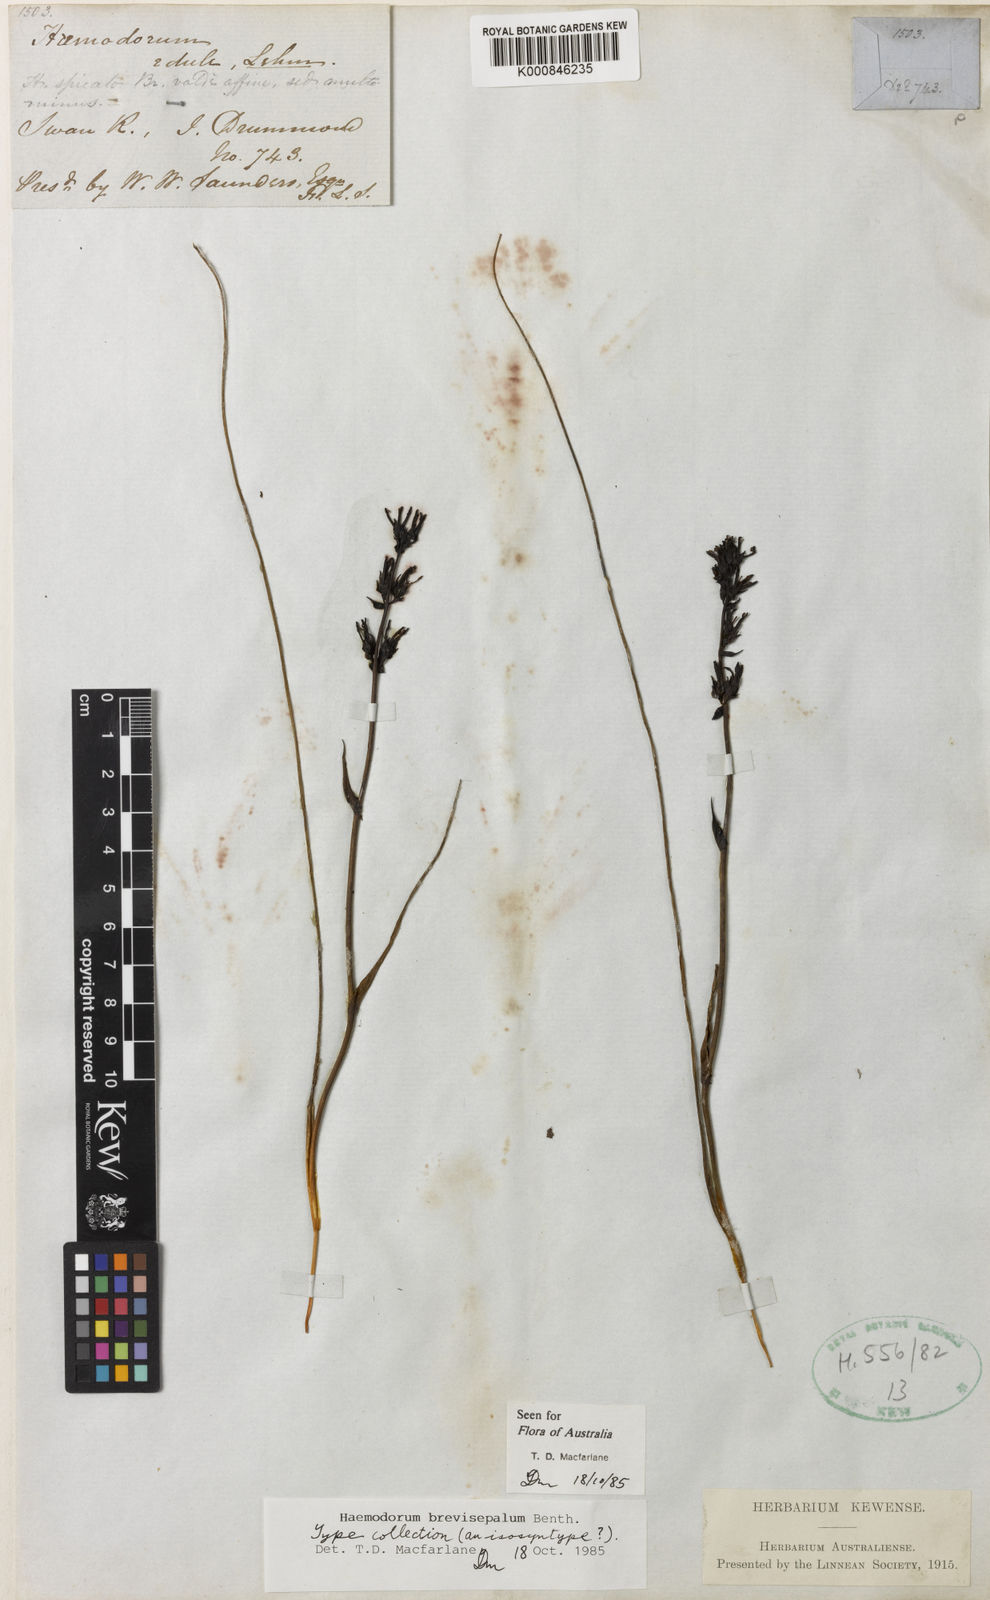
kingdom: Plantae
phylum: Tracheophyta
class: Liliopsida
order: Commelinales
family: Haemodoraceae
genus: Haemodorum
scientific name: Haemodorum brevisepalum
